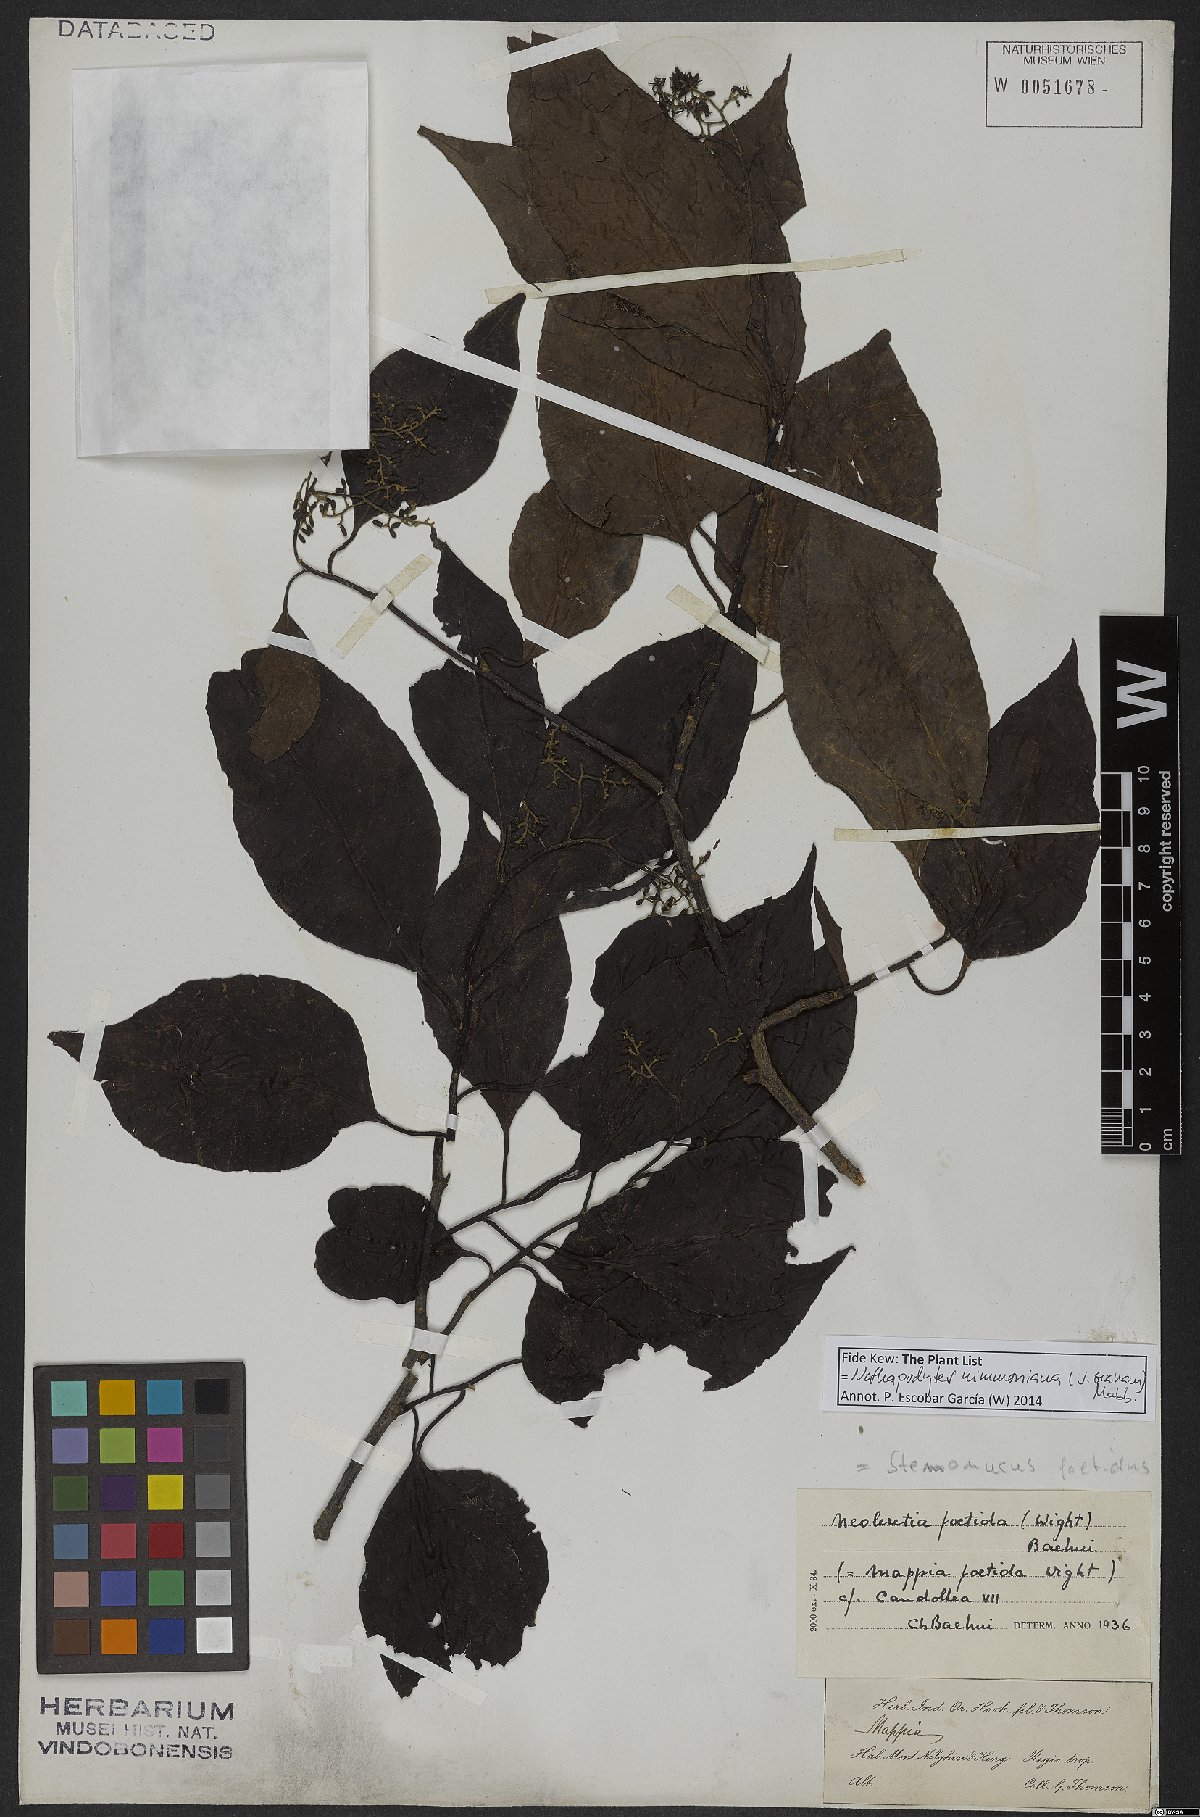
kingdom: Plantae
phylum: Tracheophyta
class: Magnoliopsida
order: Icacinales
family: Icacinaceae
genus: Nothapodytes
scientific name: Nothapodytes nimmoniana
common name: Nothapodytes
